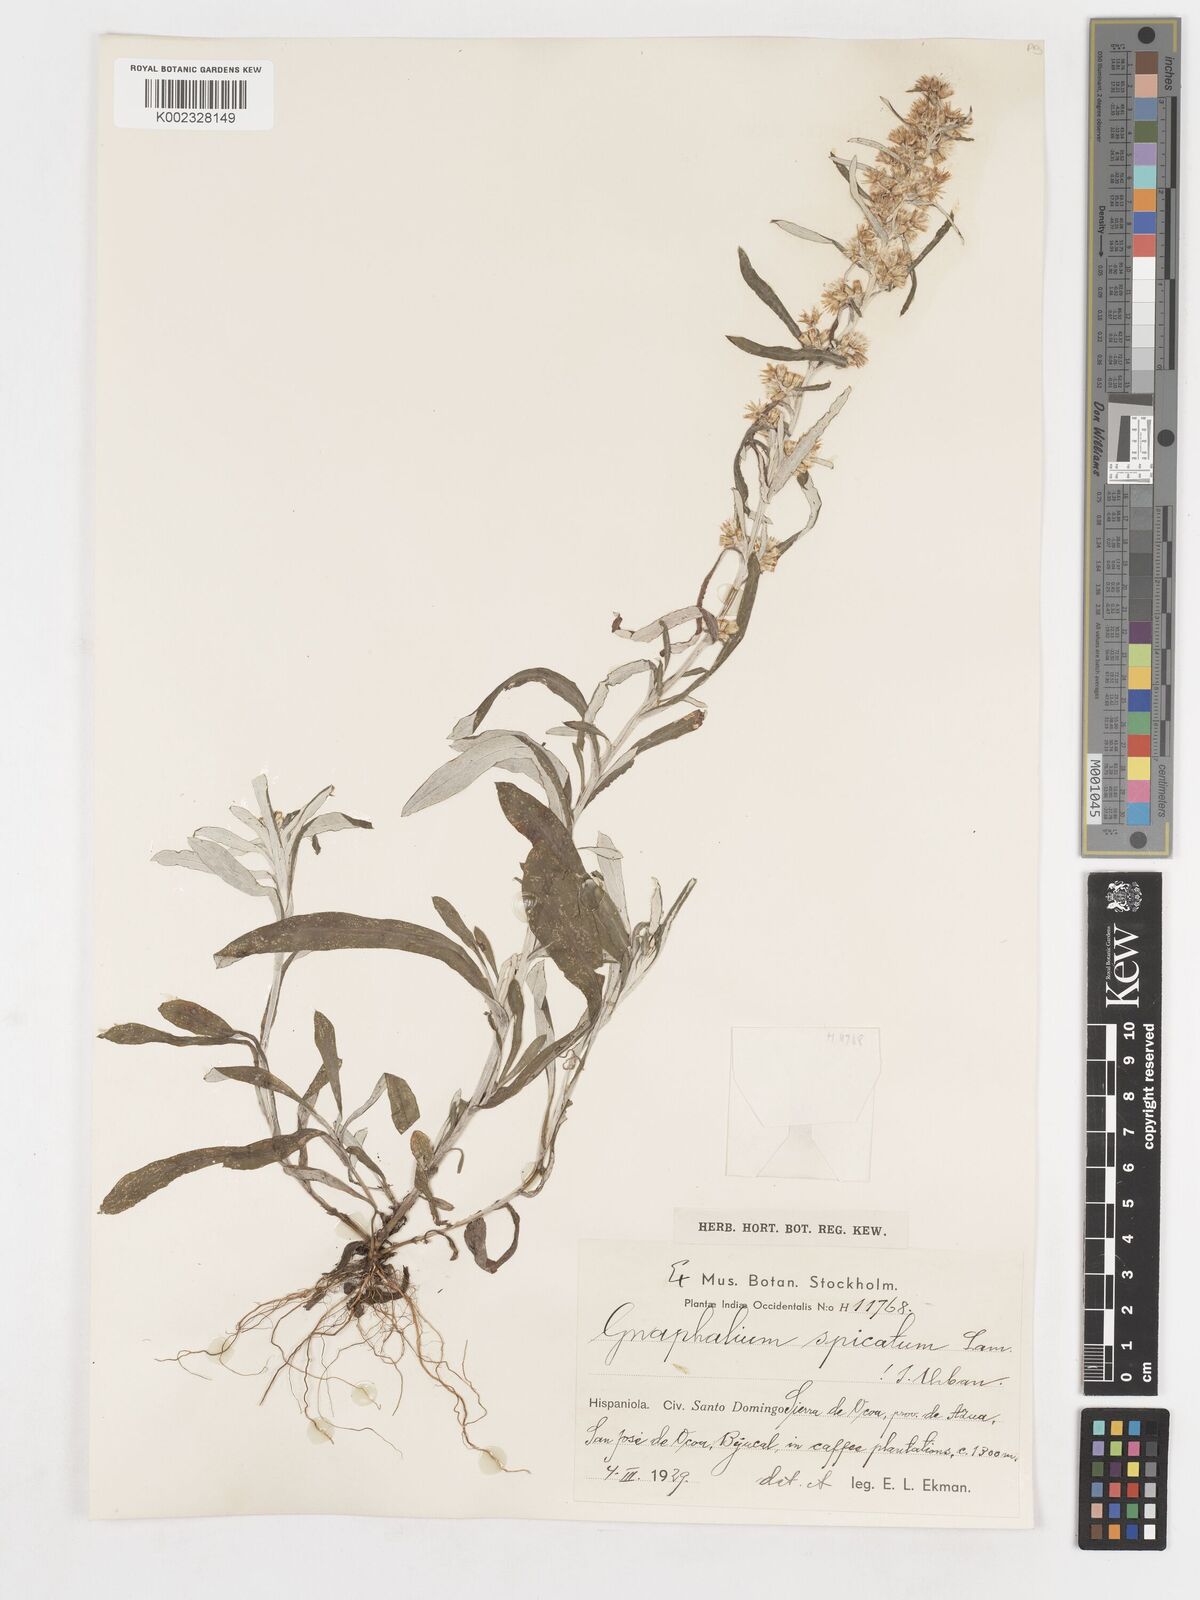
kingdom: Plantae
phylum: Tracheophyta
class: Magnoliopsida
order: Asterales
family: Asteraceae
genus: Gamochaeta
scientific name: Gamochaeta
